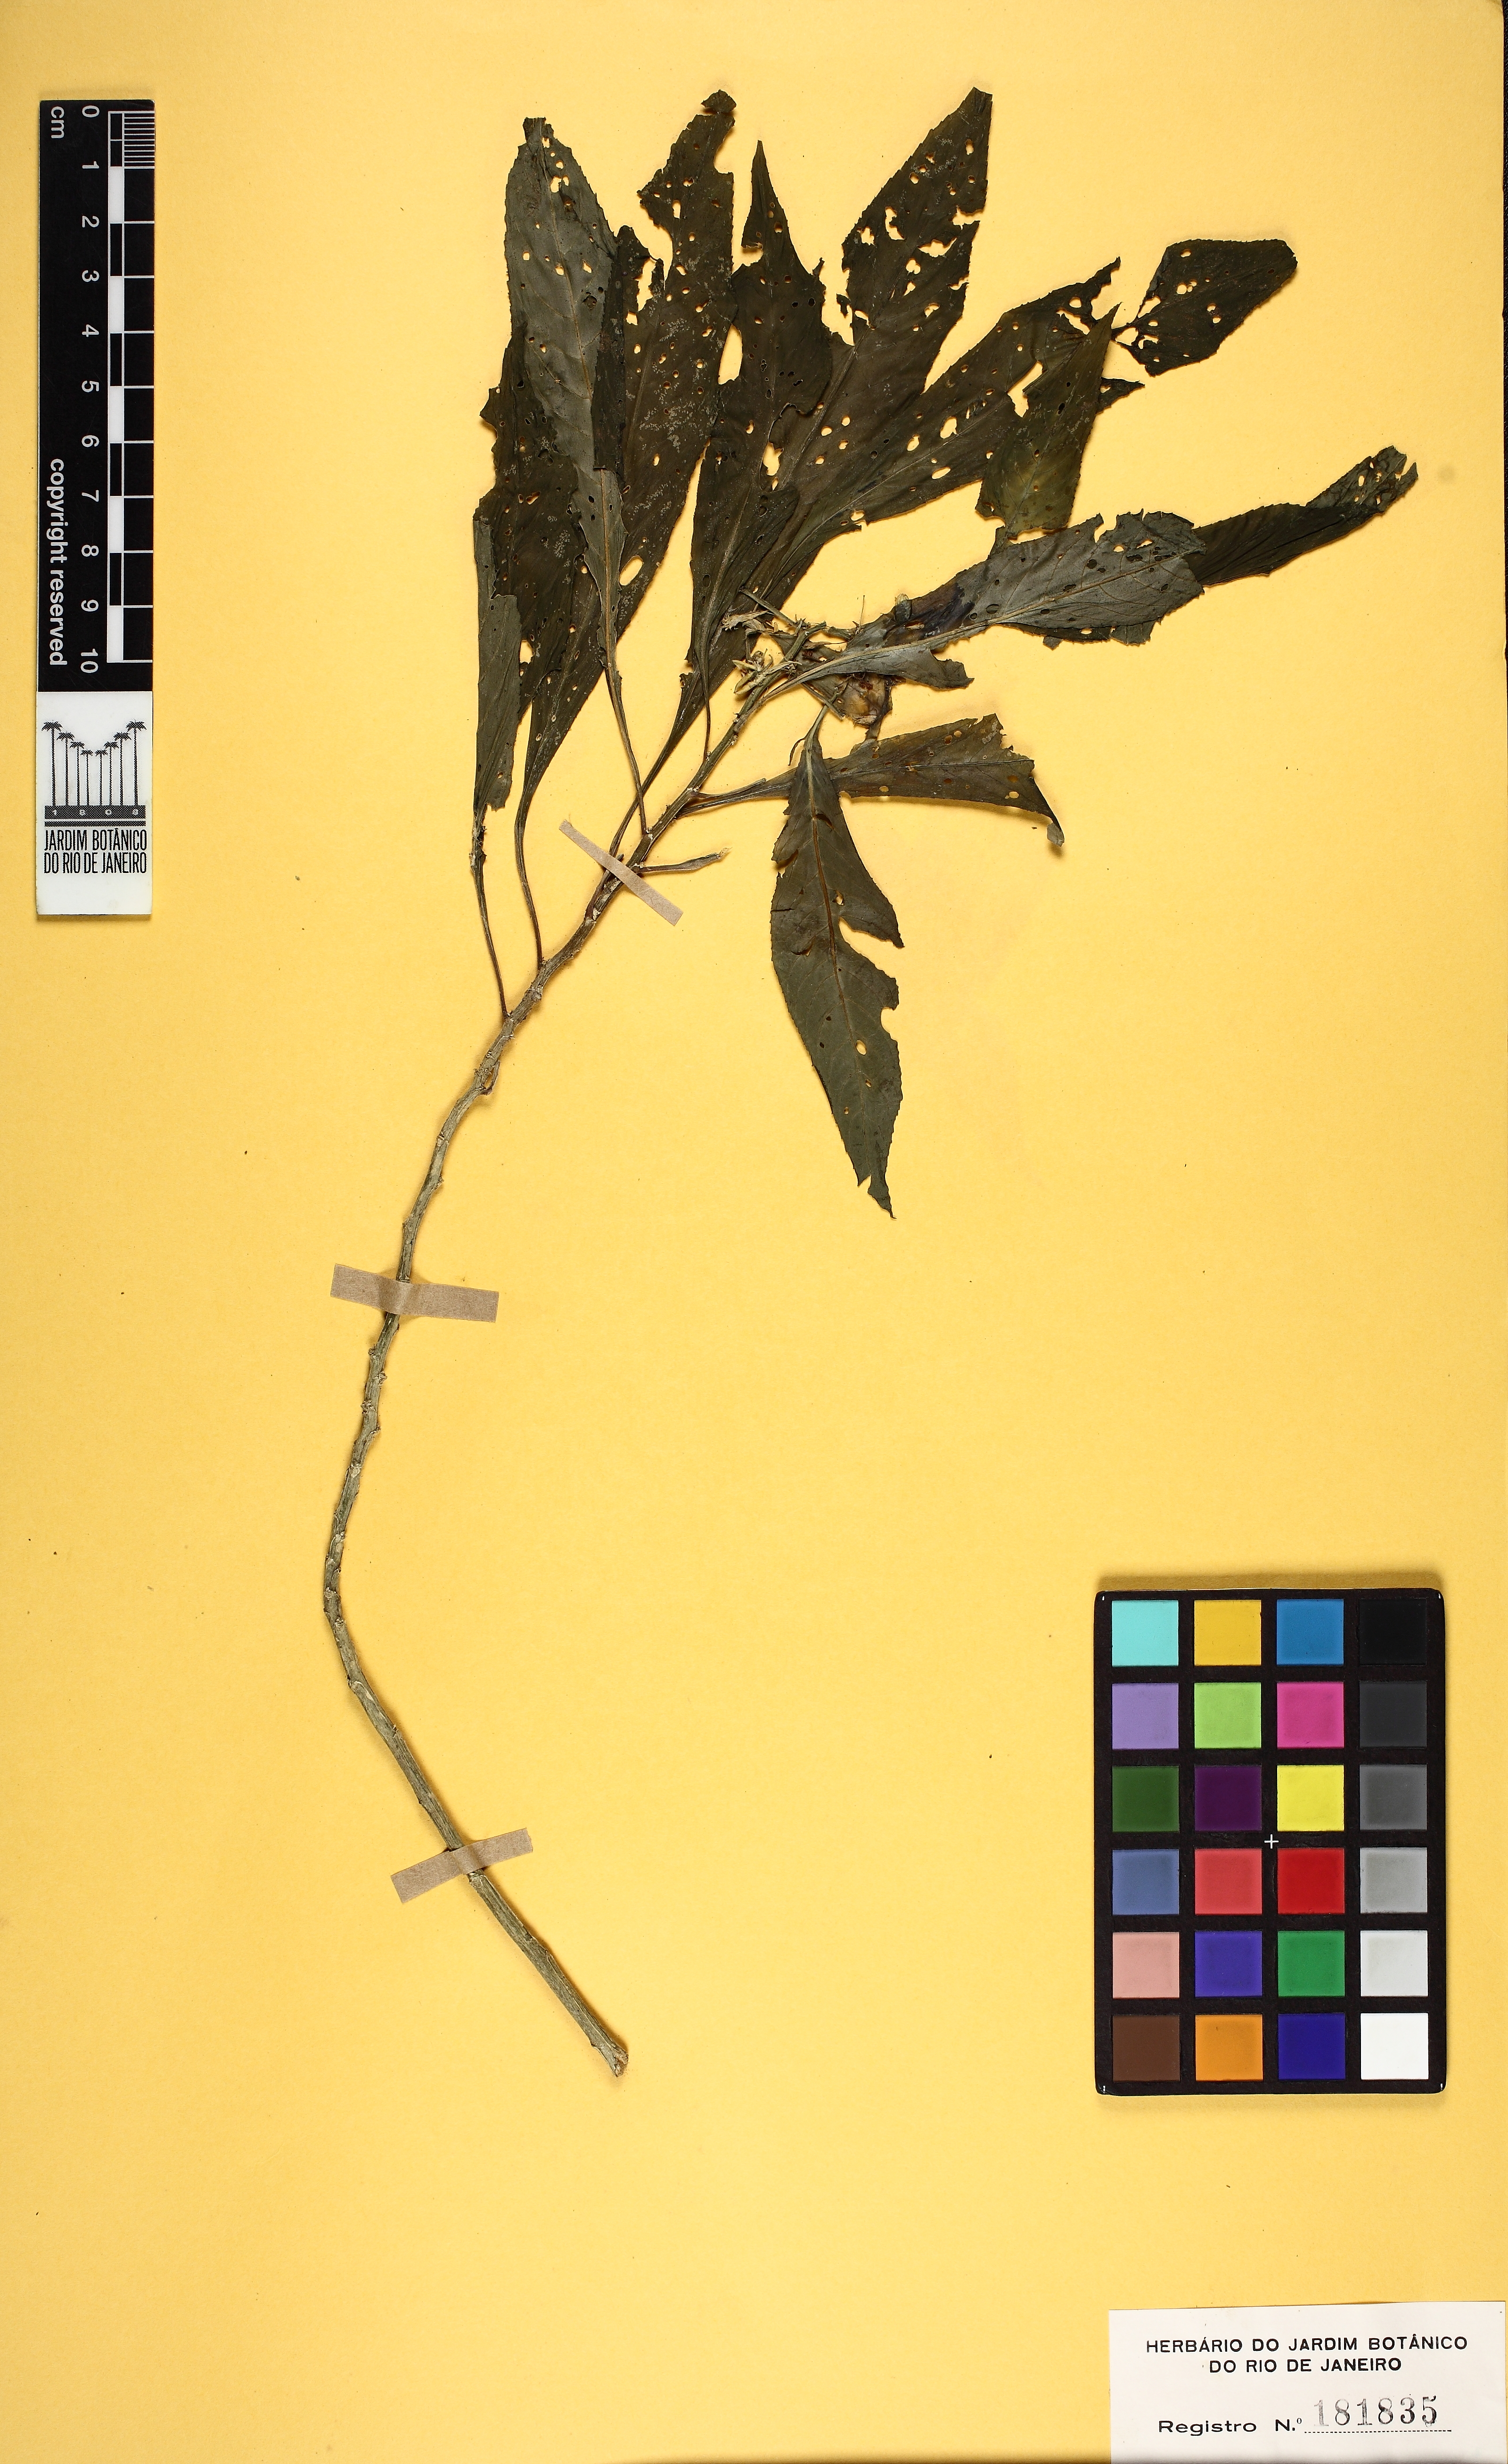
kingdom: Plantae
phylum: Tracheophyta
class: Magnoliopsida
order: Malpighiales
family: Violaceae
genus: Noisettia
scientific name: Noisettia orchidiflora
